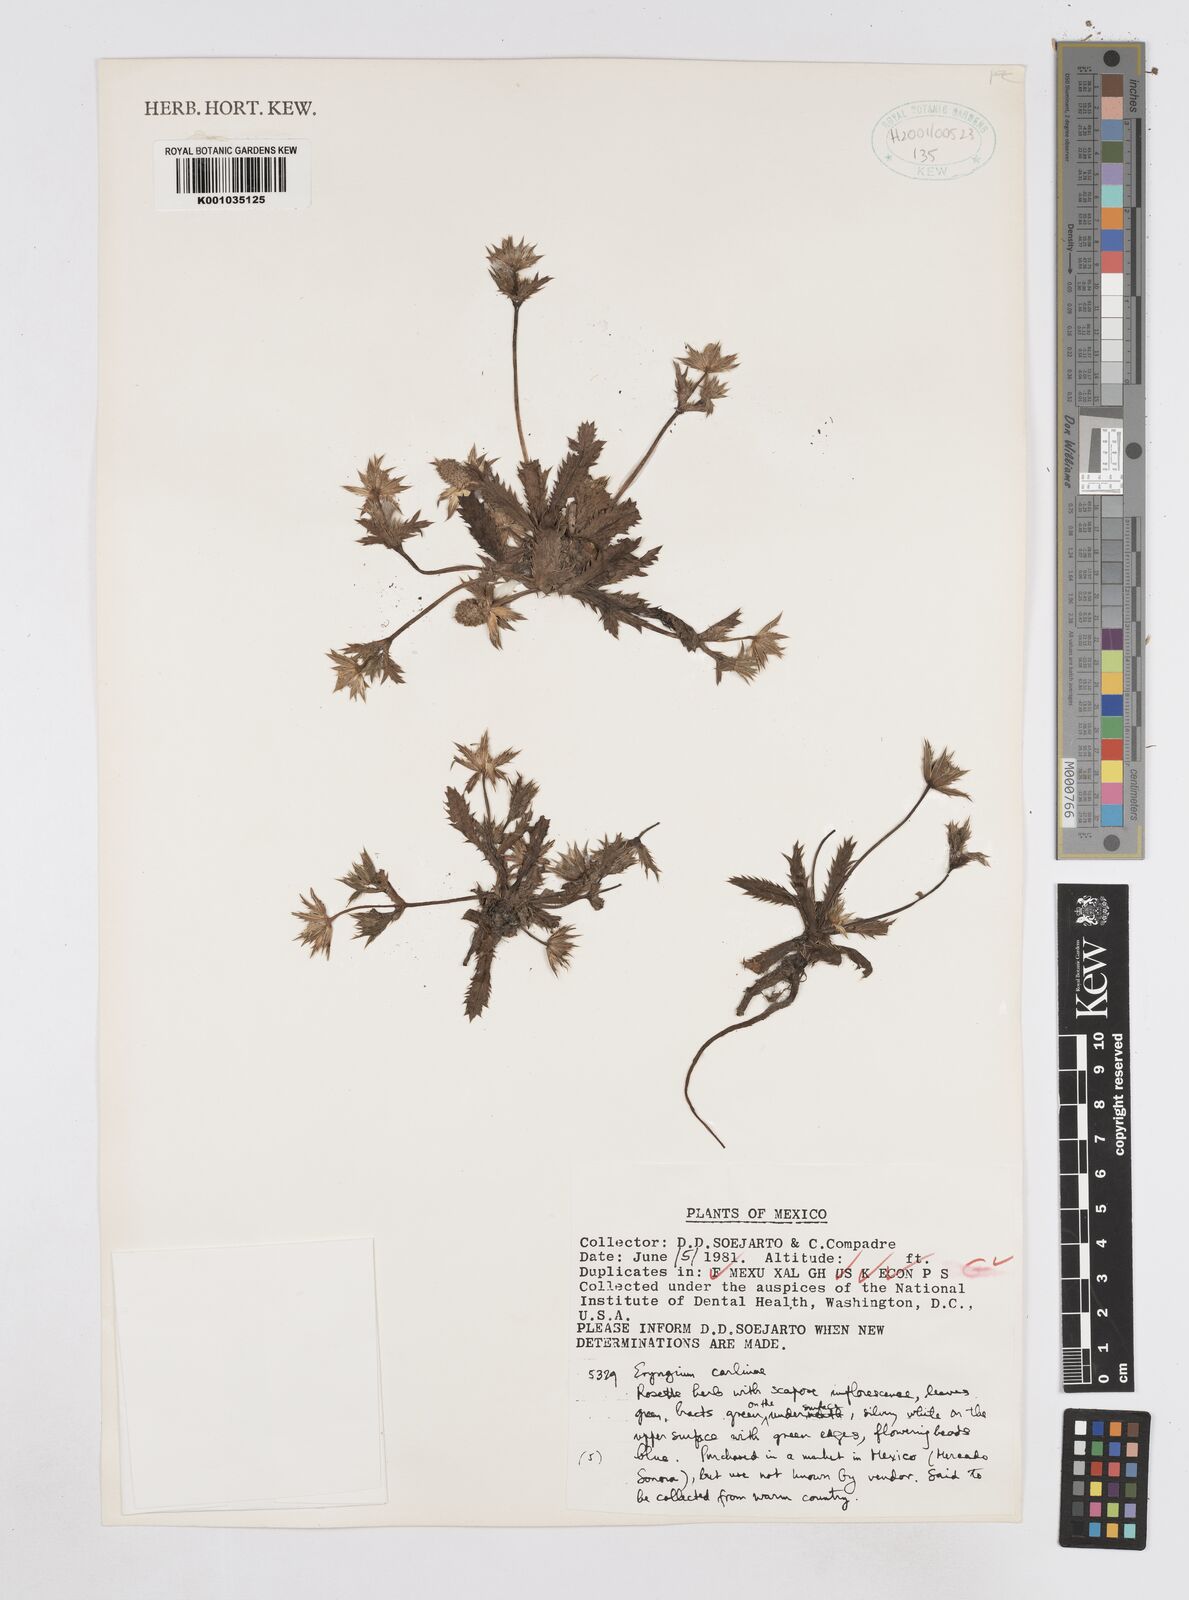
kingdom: Plantae
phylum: Tracheophyta
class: Magnoliopsida
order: Apiales
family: Apiaceae
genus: Eryngium
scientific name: Eryngium carlinae
